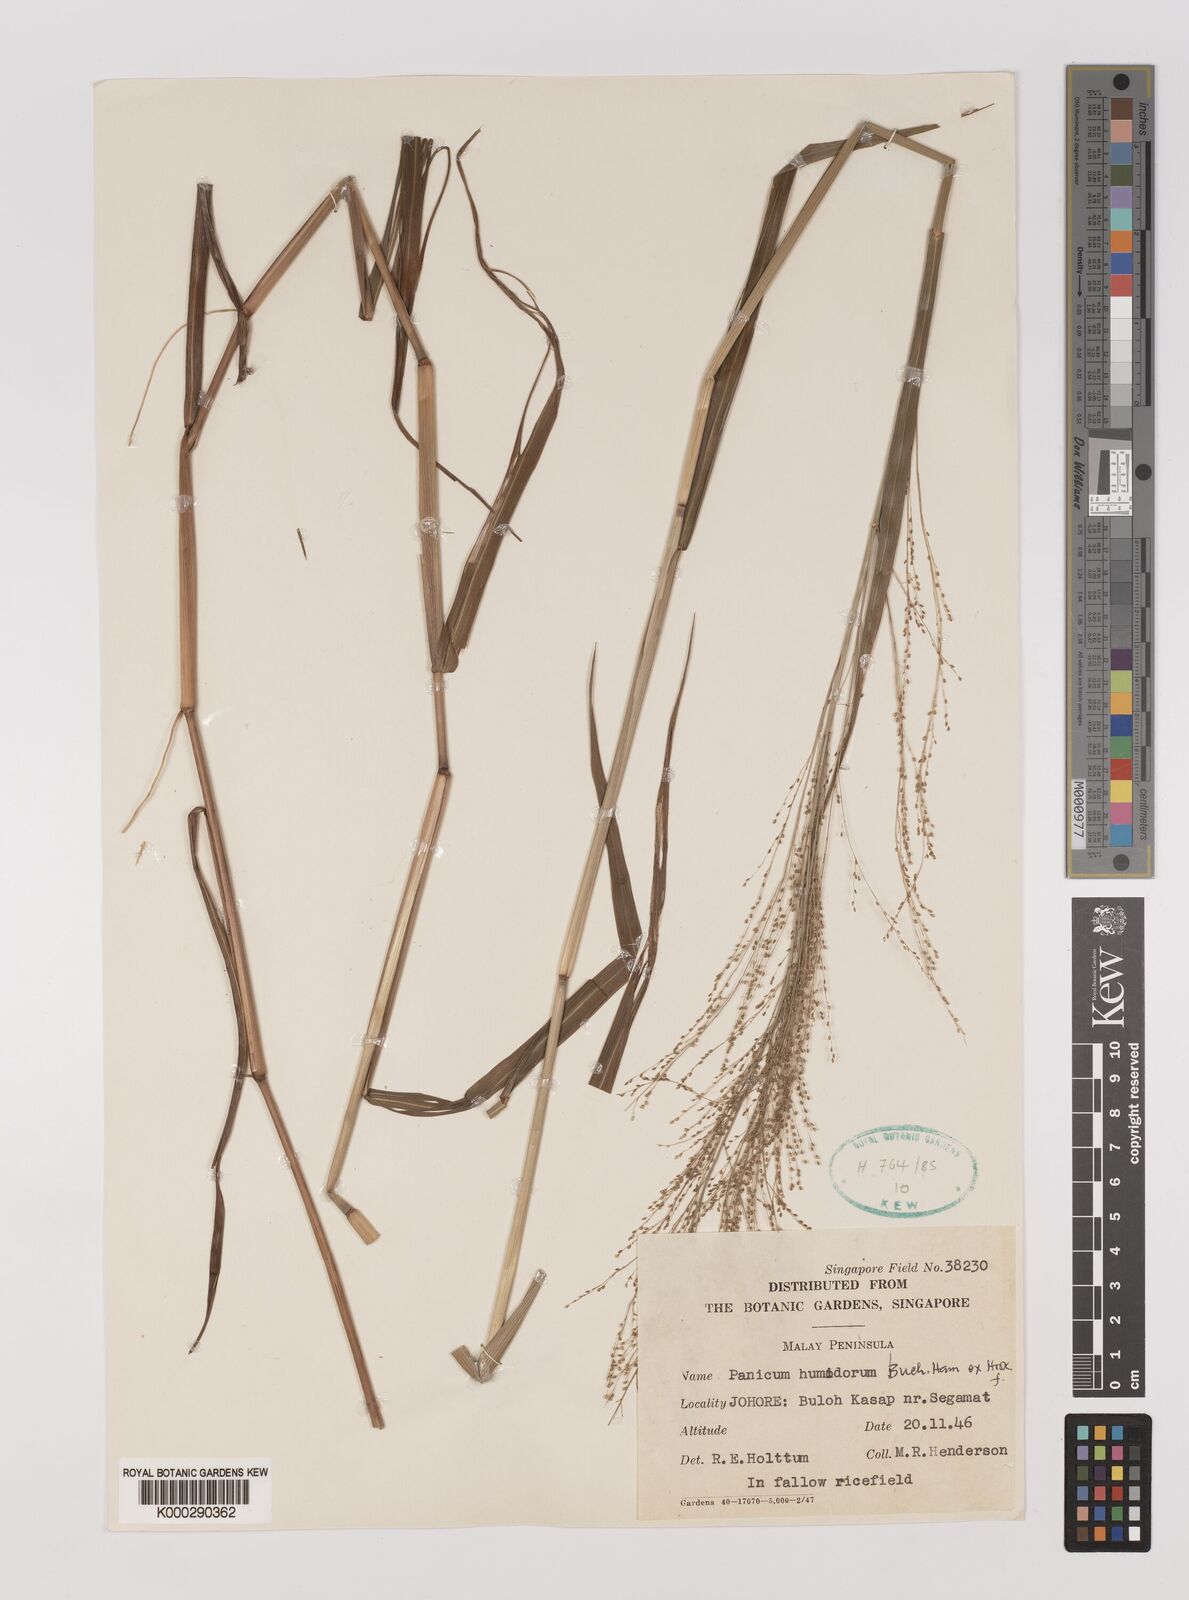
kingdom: Plantae
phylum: Tracheophyta
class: Liliopsida
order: Poales
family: Poaceae
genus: Panicum
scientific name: Panicum humidorum
